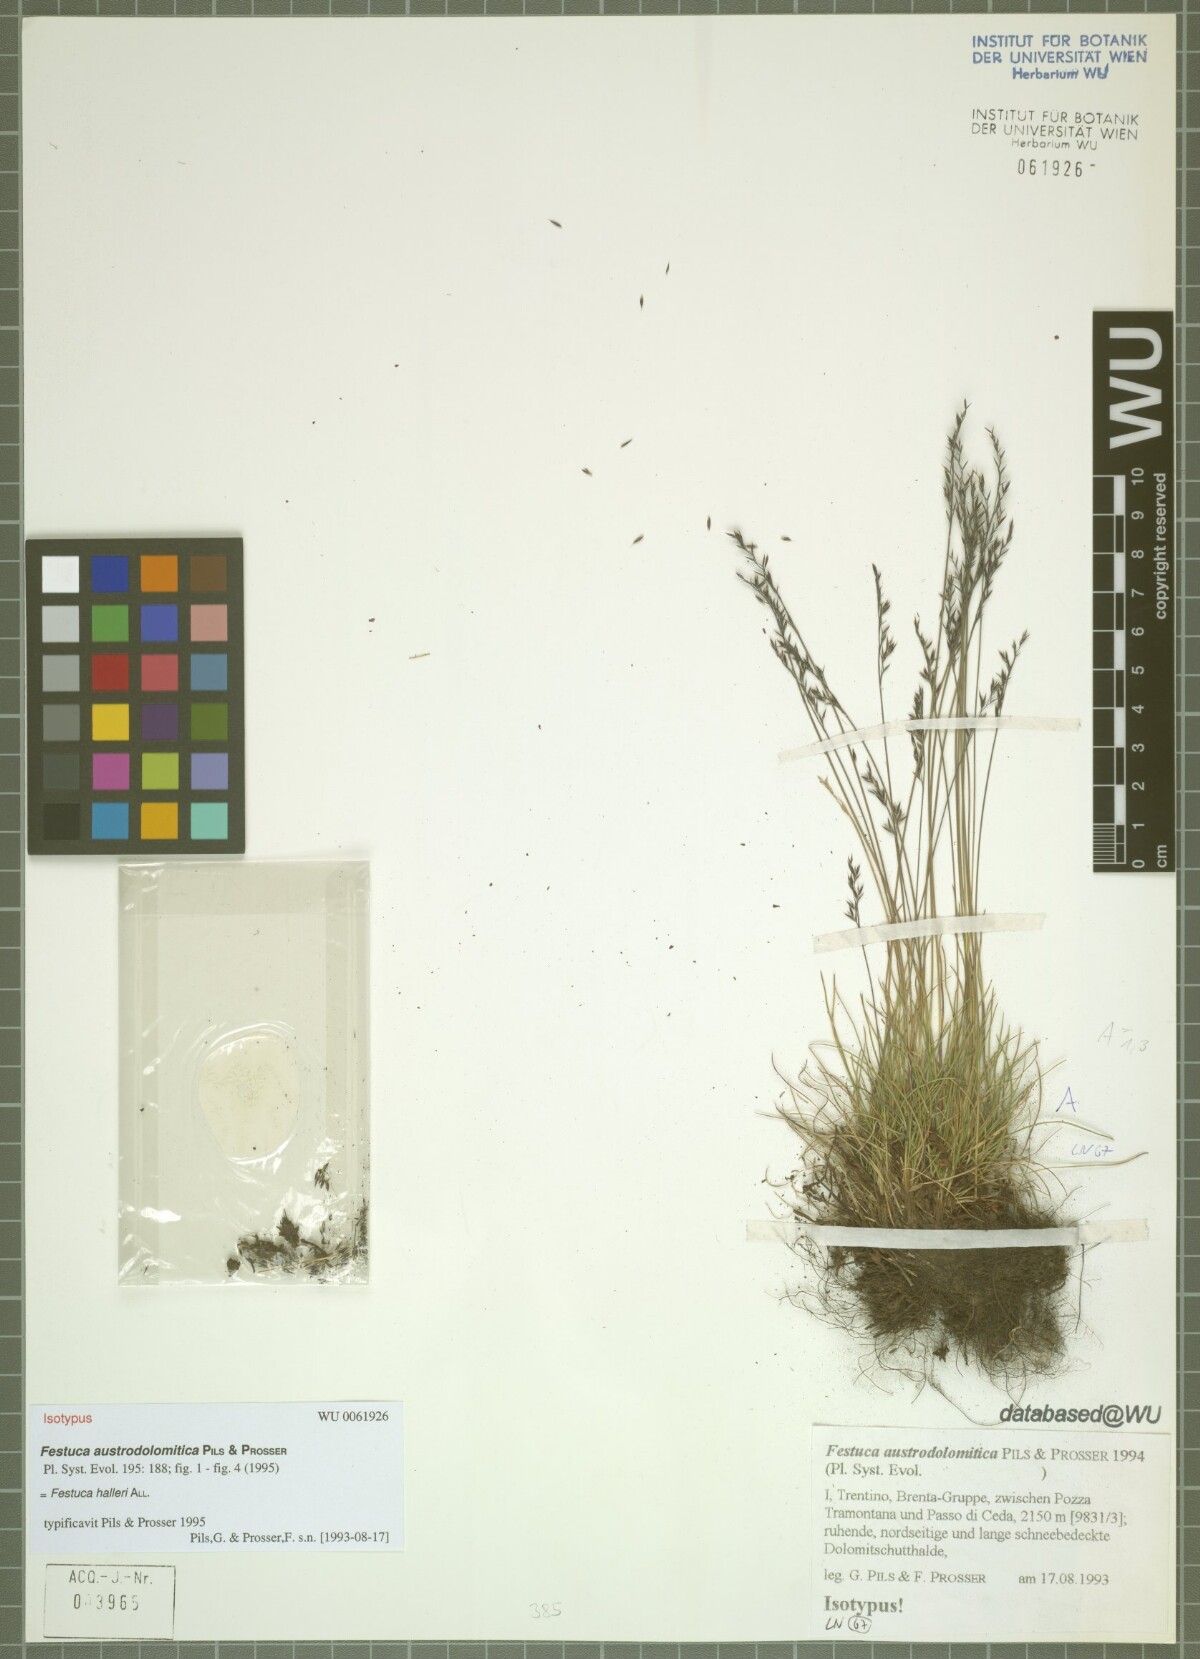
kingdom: Plantae
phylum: Tracheophyta
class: Liliopsida
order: Poales
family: Poaceae
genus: Festuca
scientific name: Festuca halleri
